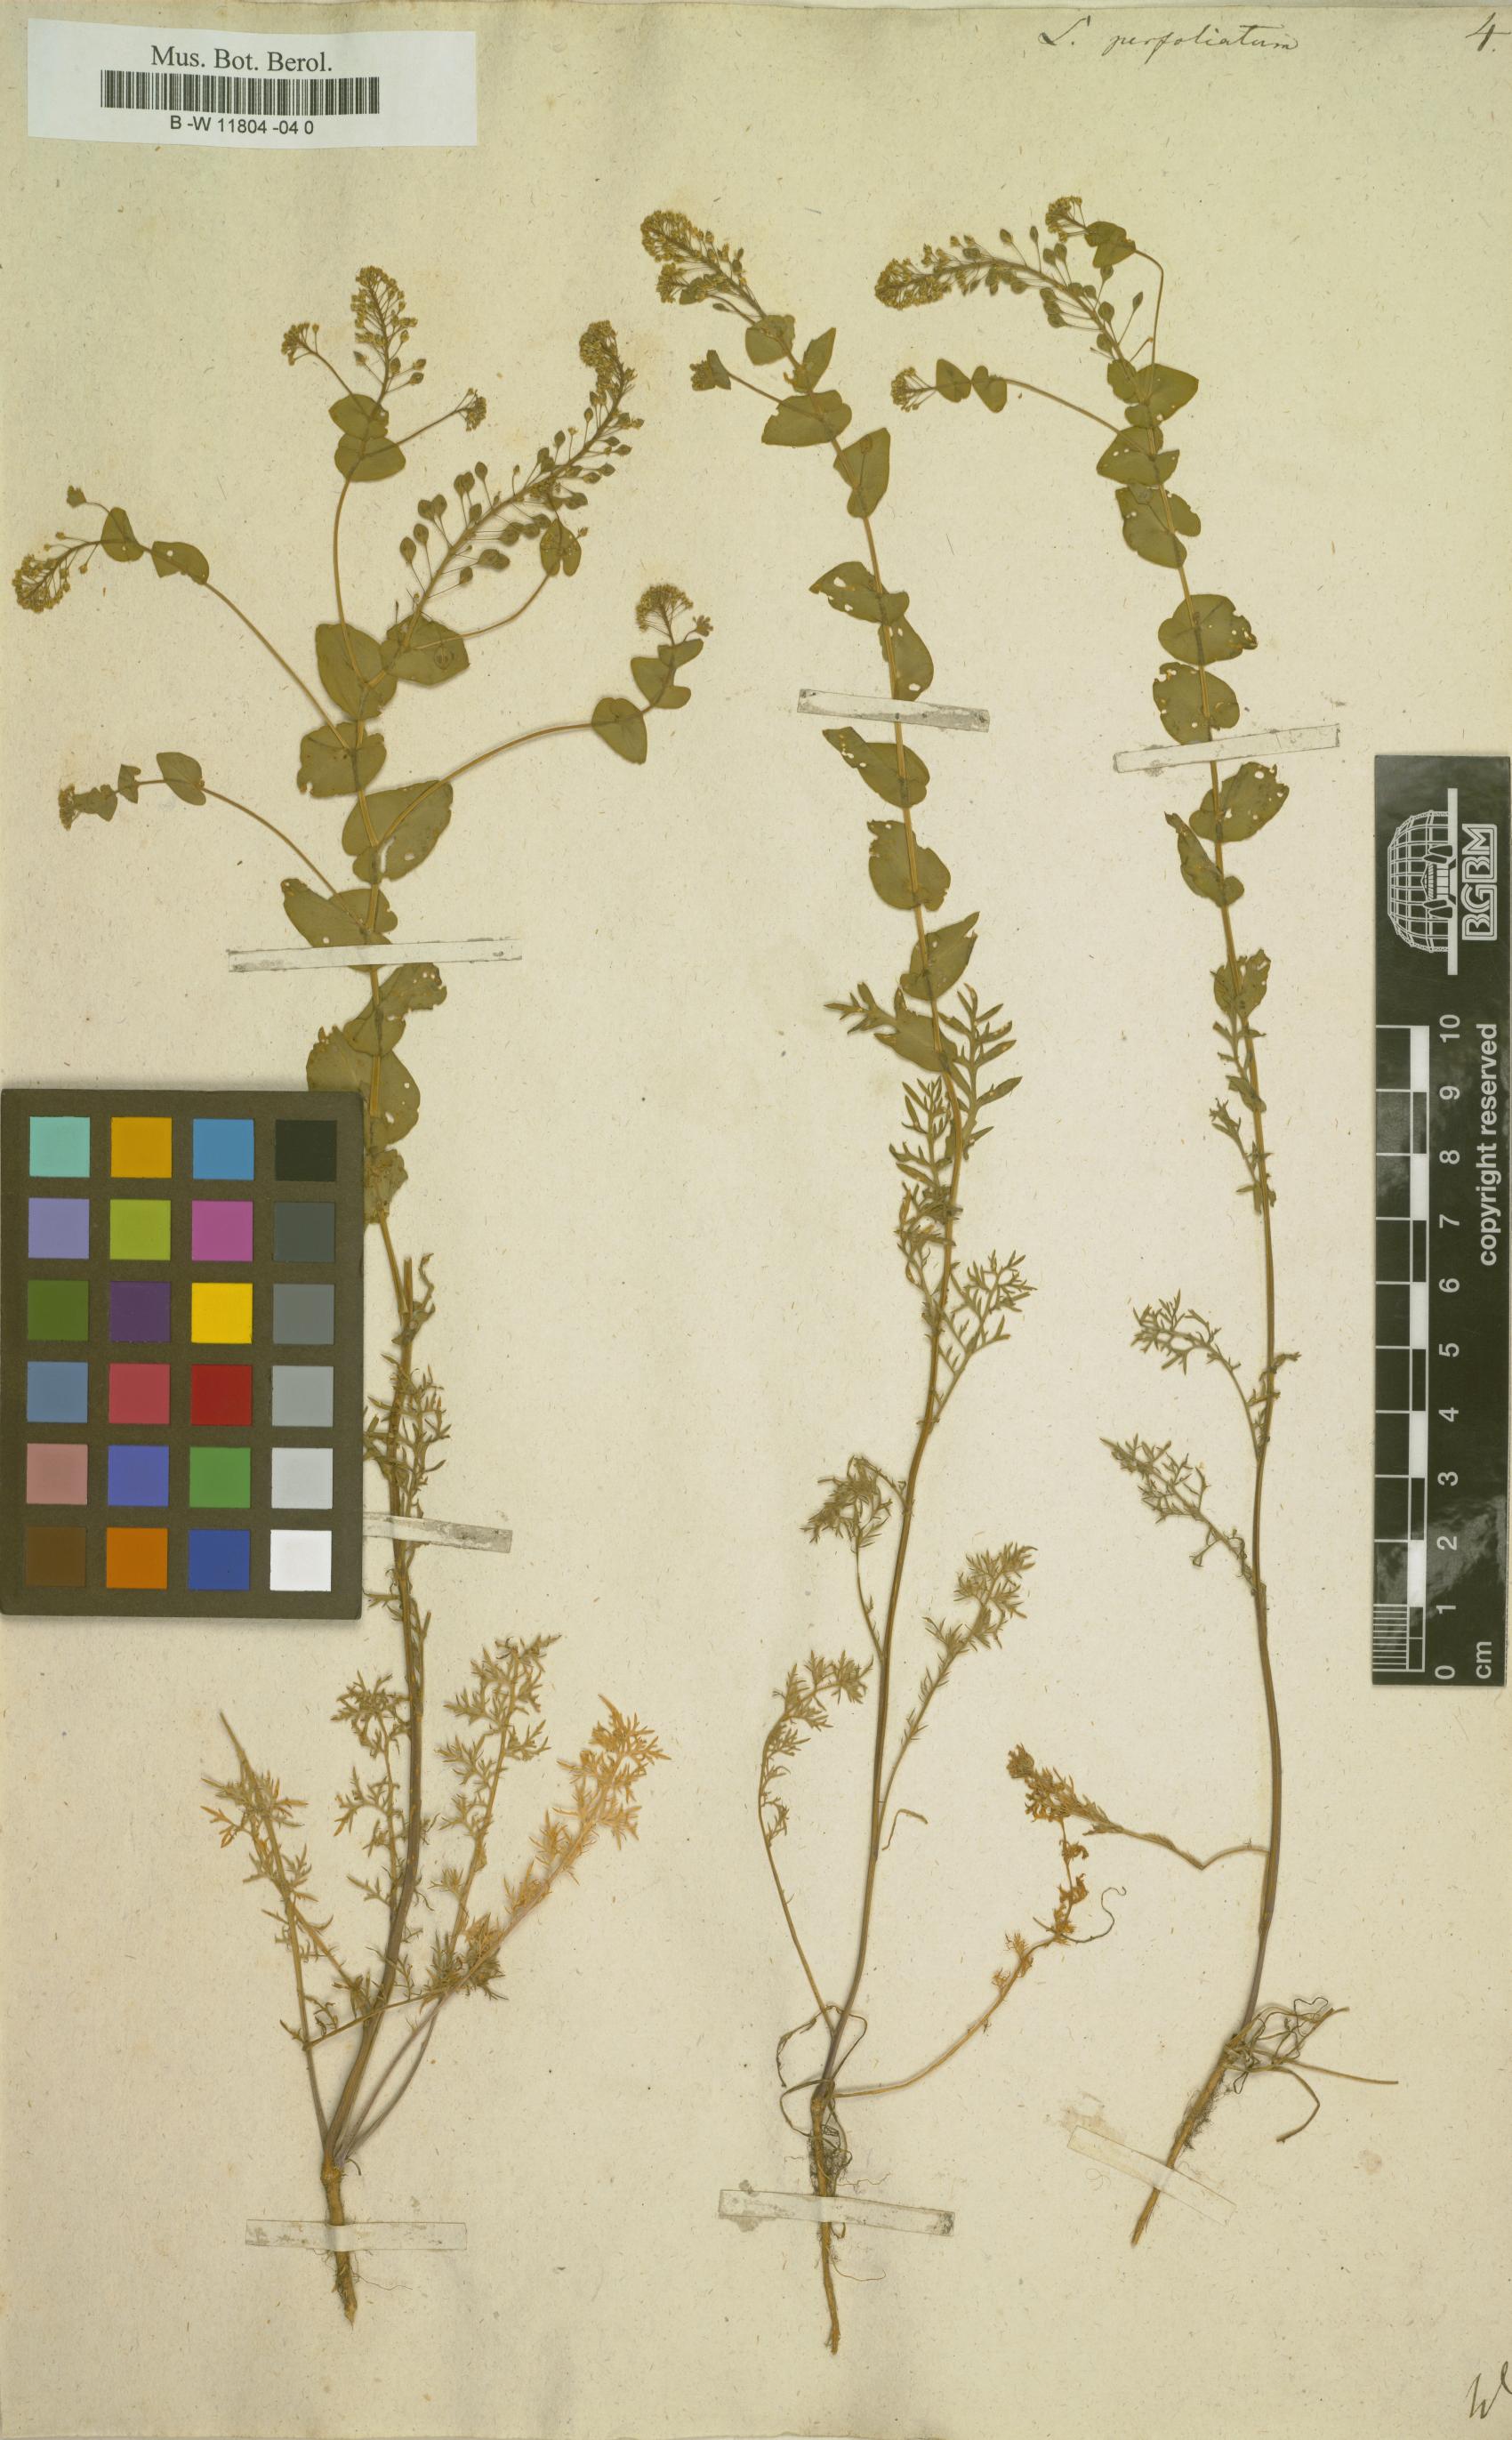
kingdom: Plantae
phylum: Tracheophyta
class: Magnoliopsida
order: Brassicales
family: Brassicaceae
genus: Lepidium
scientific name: Lepidium perfoliatum
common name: Perfoliate pepperwort
